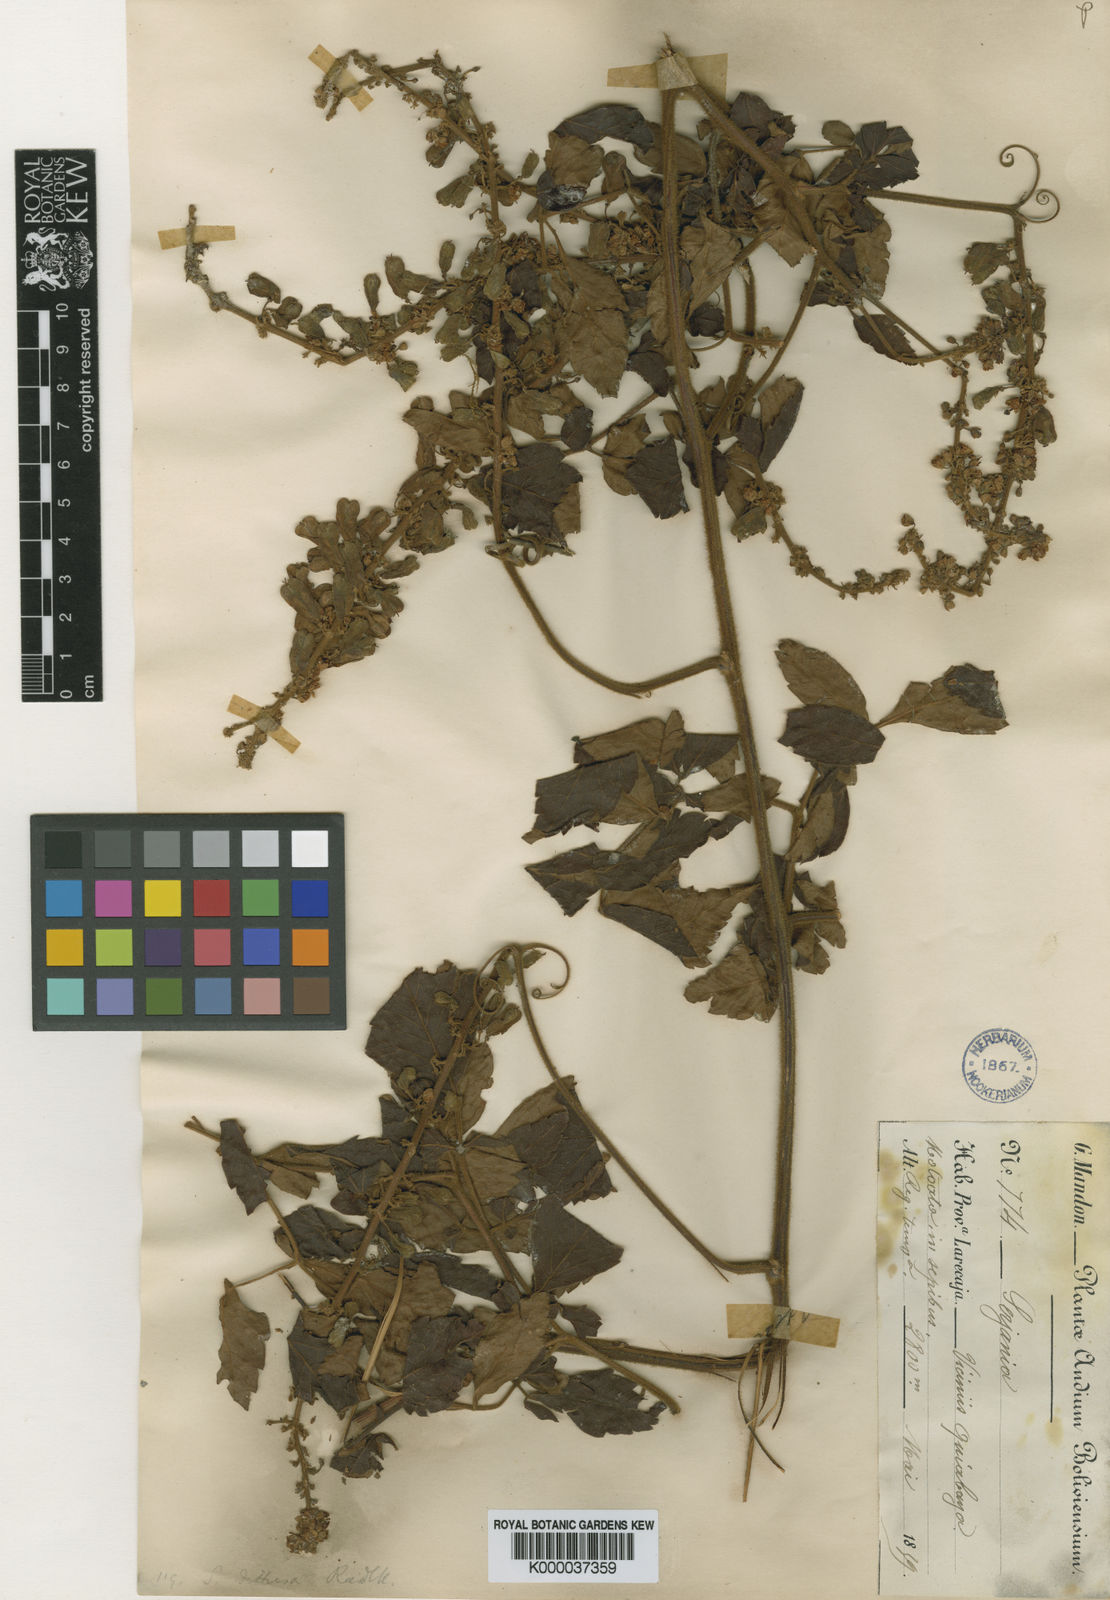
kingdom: Plantae
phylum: Tracheophyta
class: Magnoliopsida
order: Sapindales
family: Sapindaceae
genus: Serjania
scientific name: Serjania diffusa
